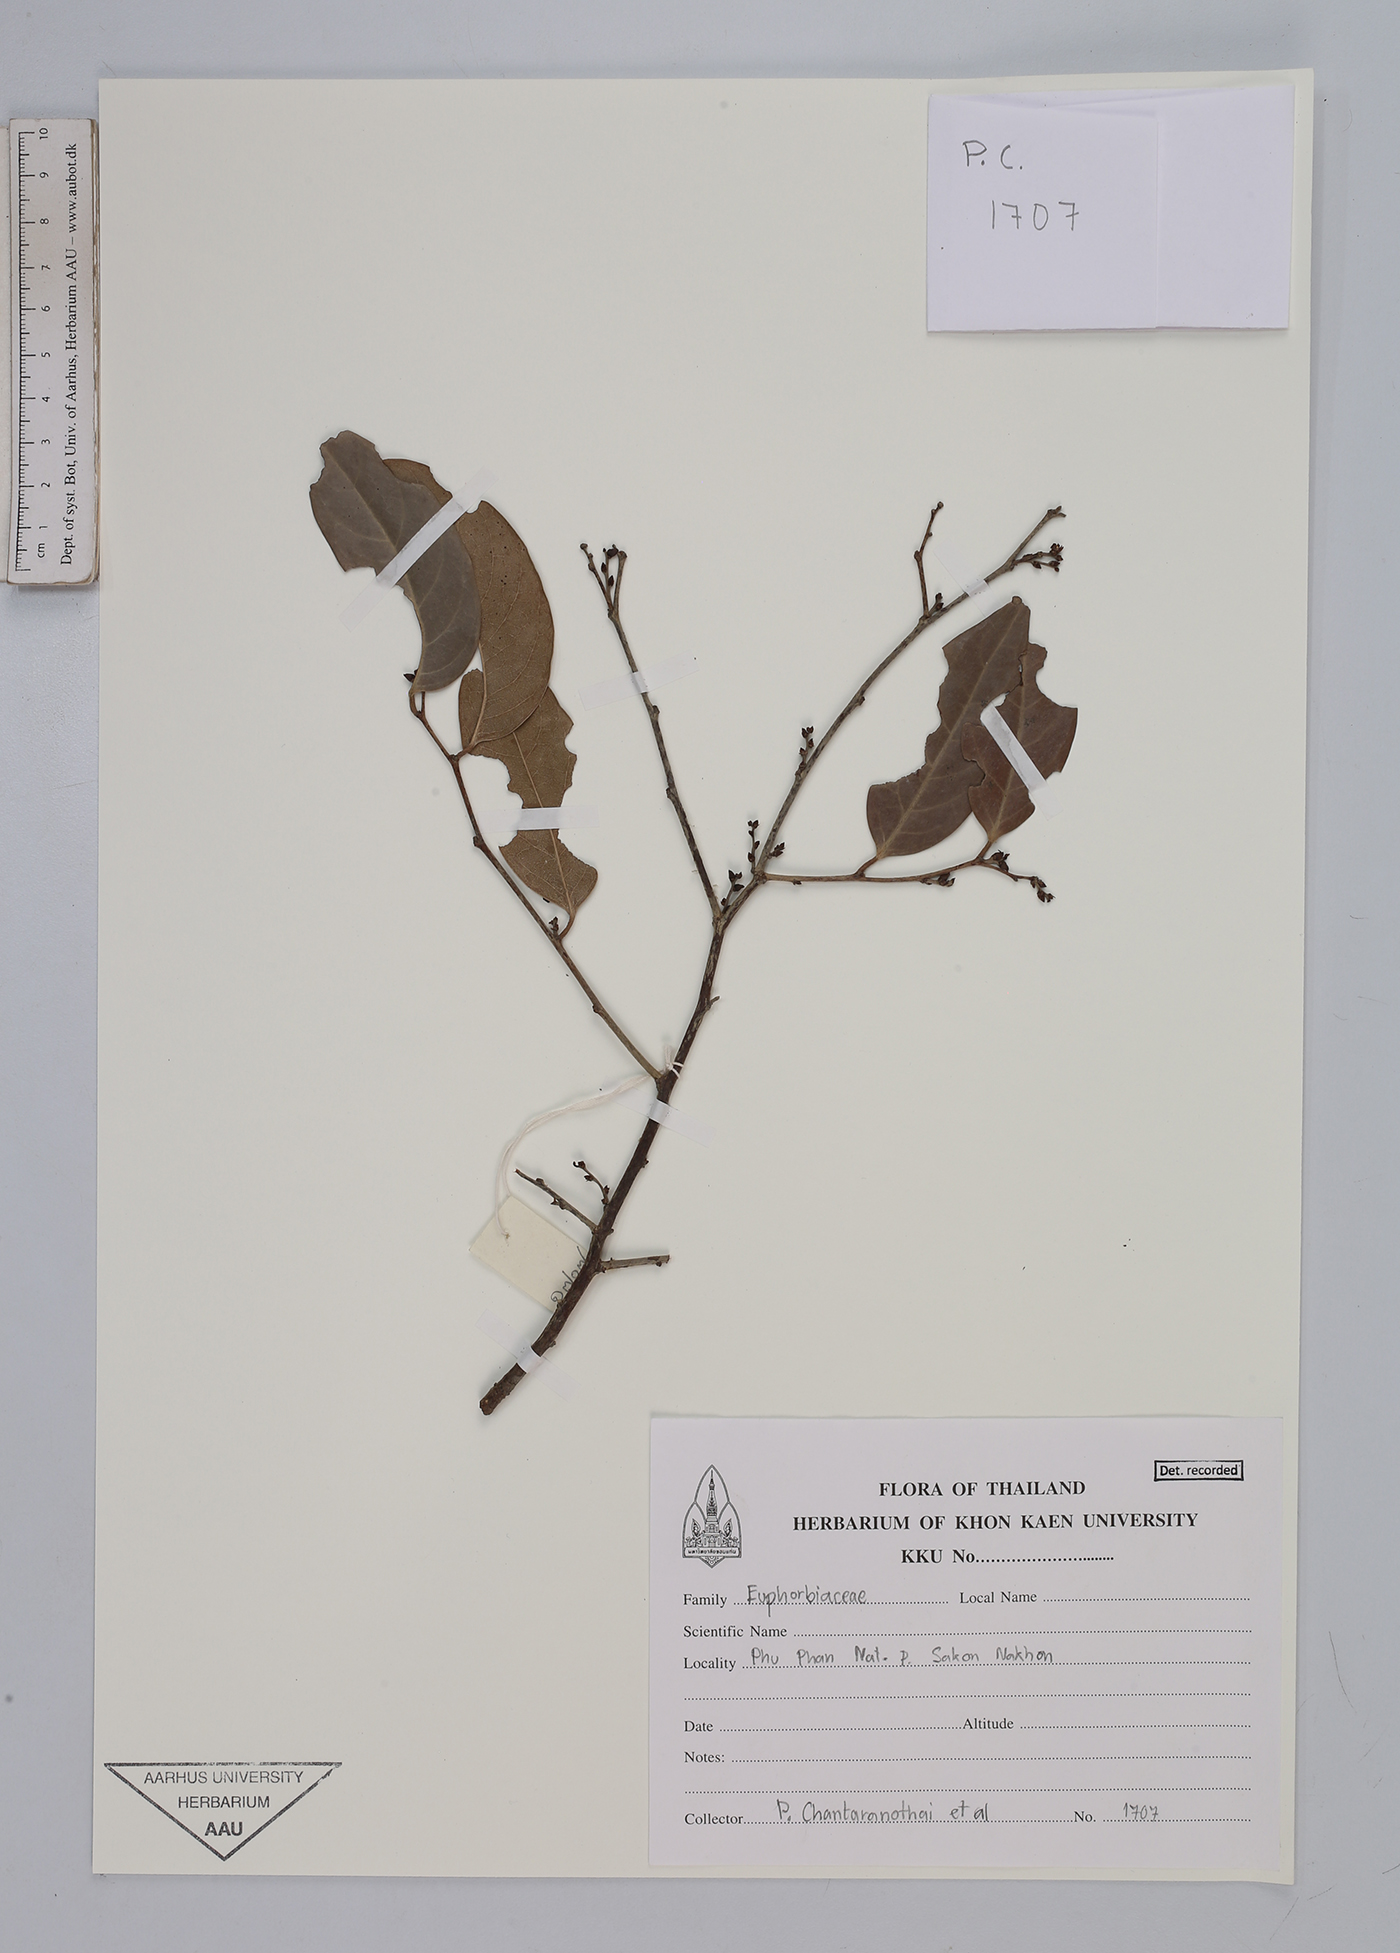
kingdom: Plantae
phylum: Tracheophyta
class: Magnoliopsida
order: Malpighiales
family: Euphorbiaceae
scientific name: Euphorbiaceae
